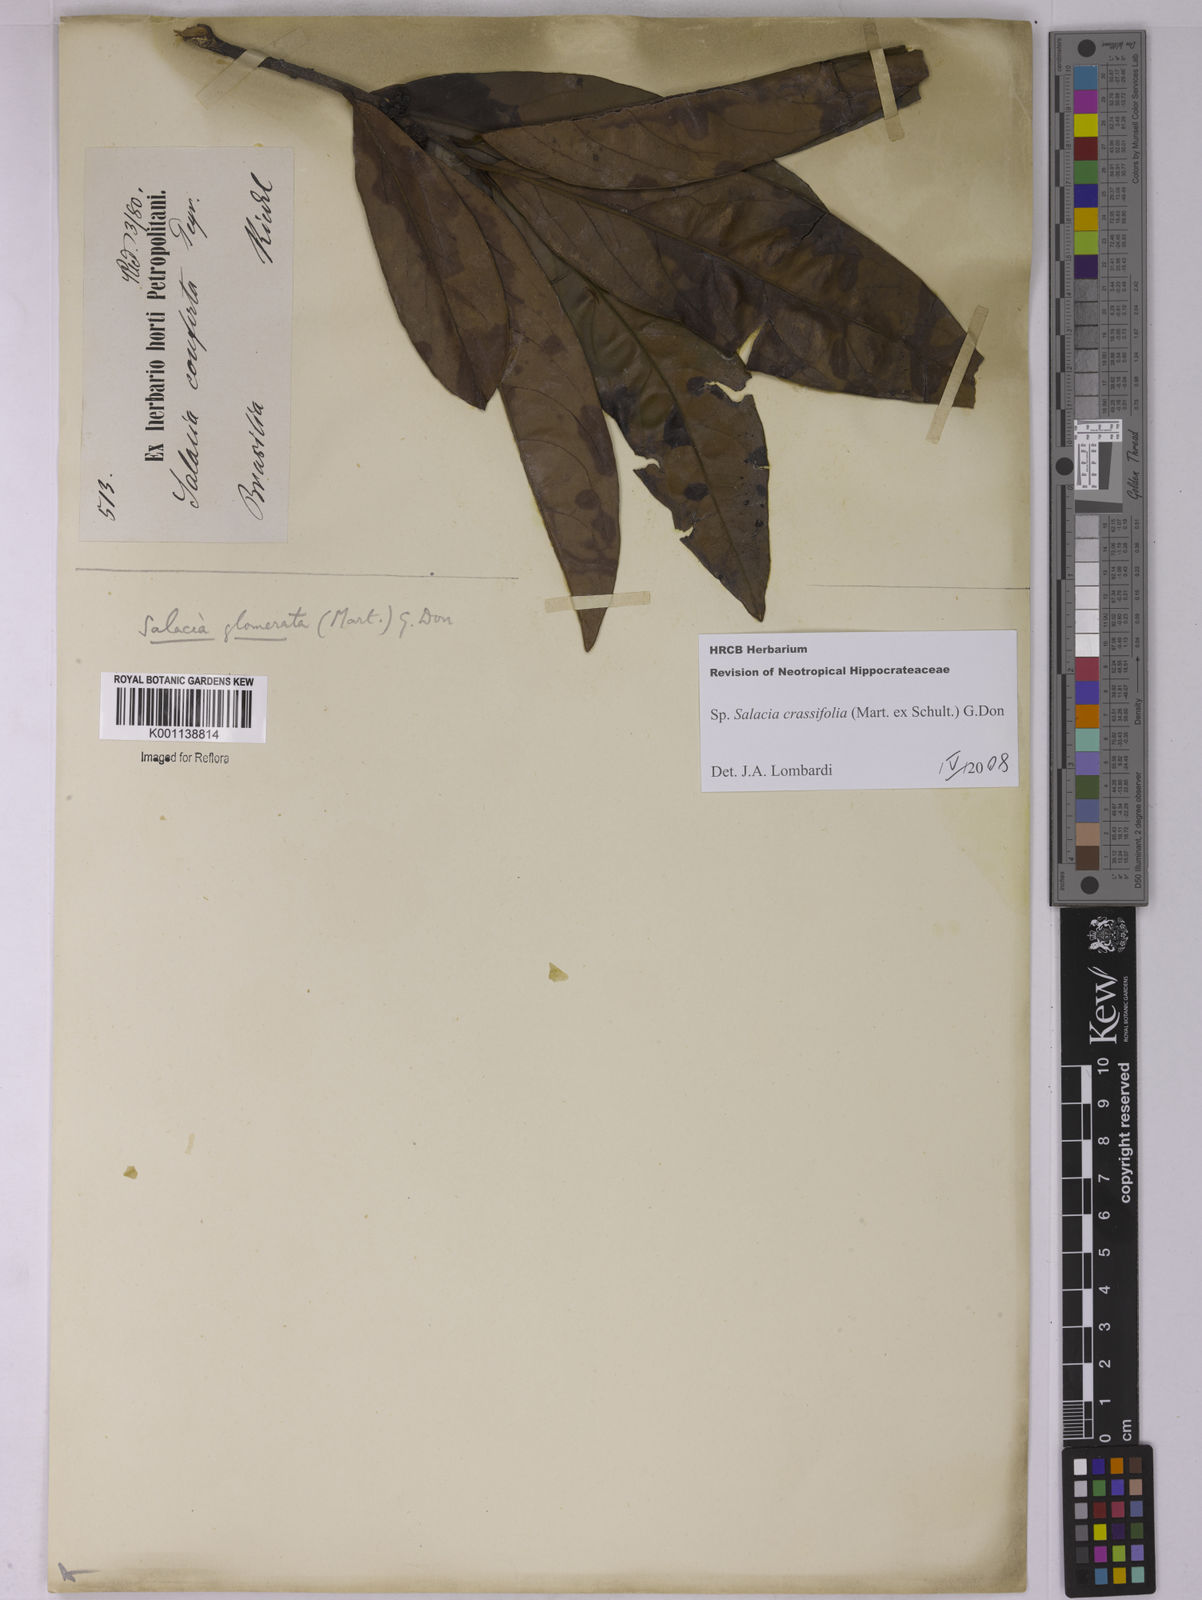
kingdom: Plantae
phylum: Tracheophyta
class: Magnoliopsida
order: Celastrales
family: Celastraceae
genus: Salacia
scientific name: Salacia elliptica
